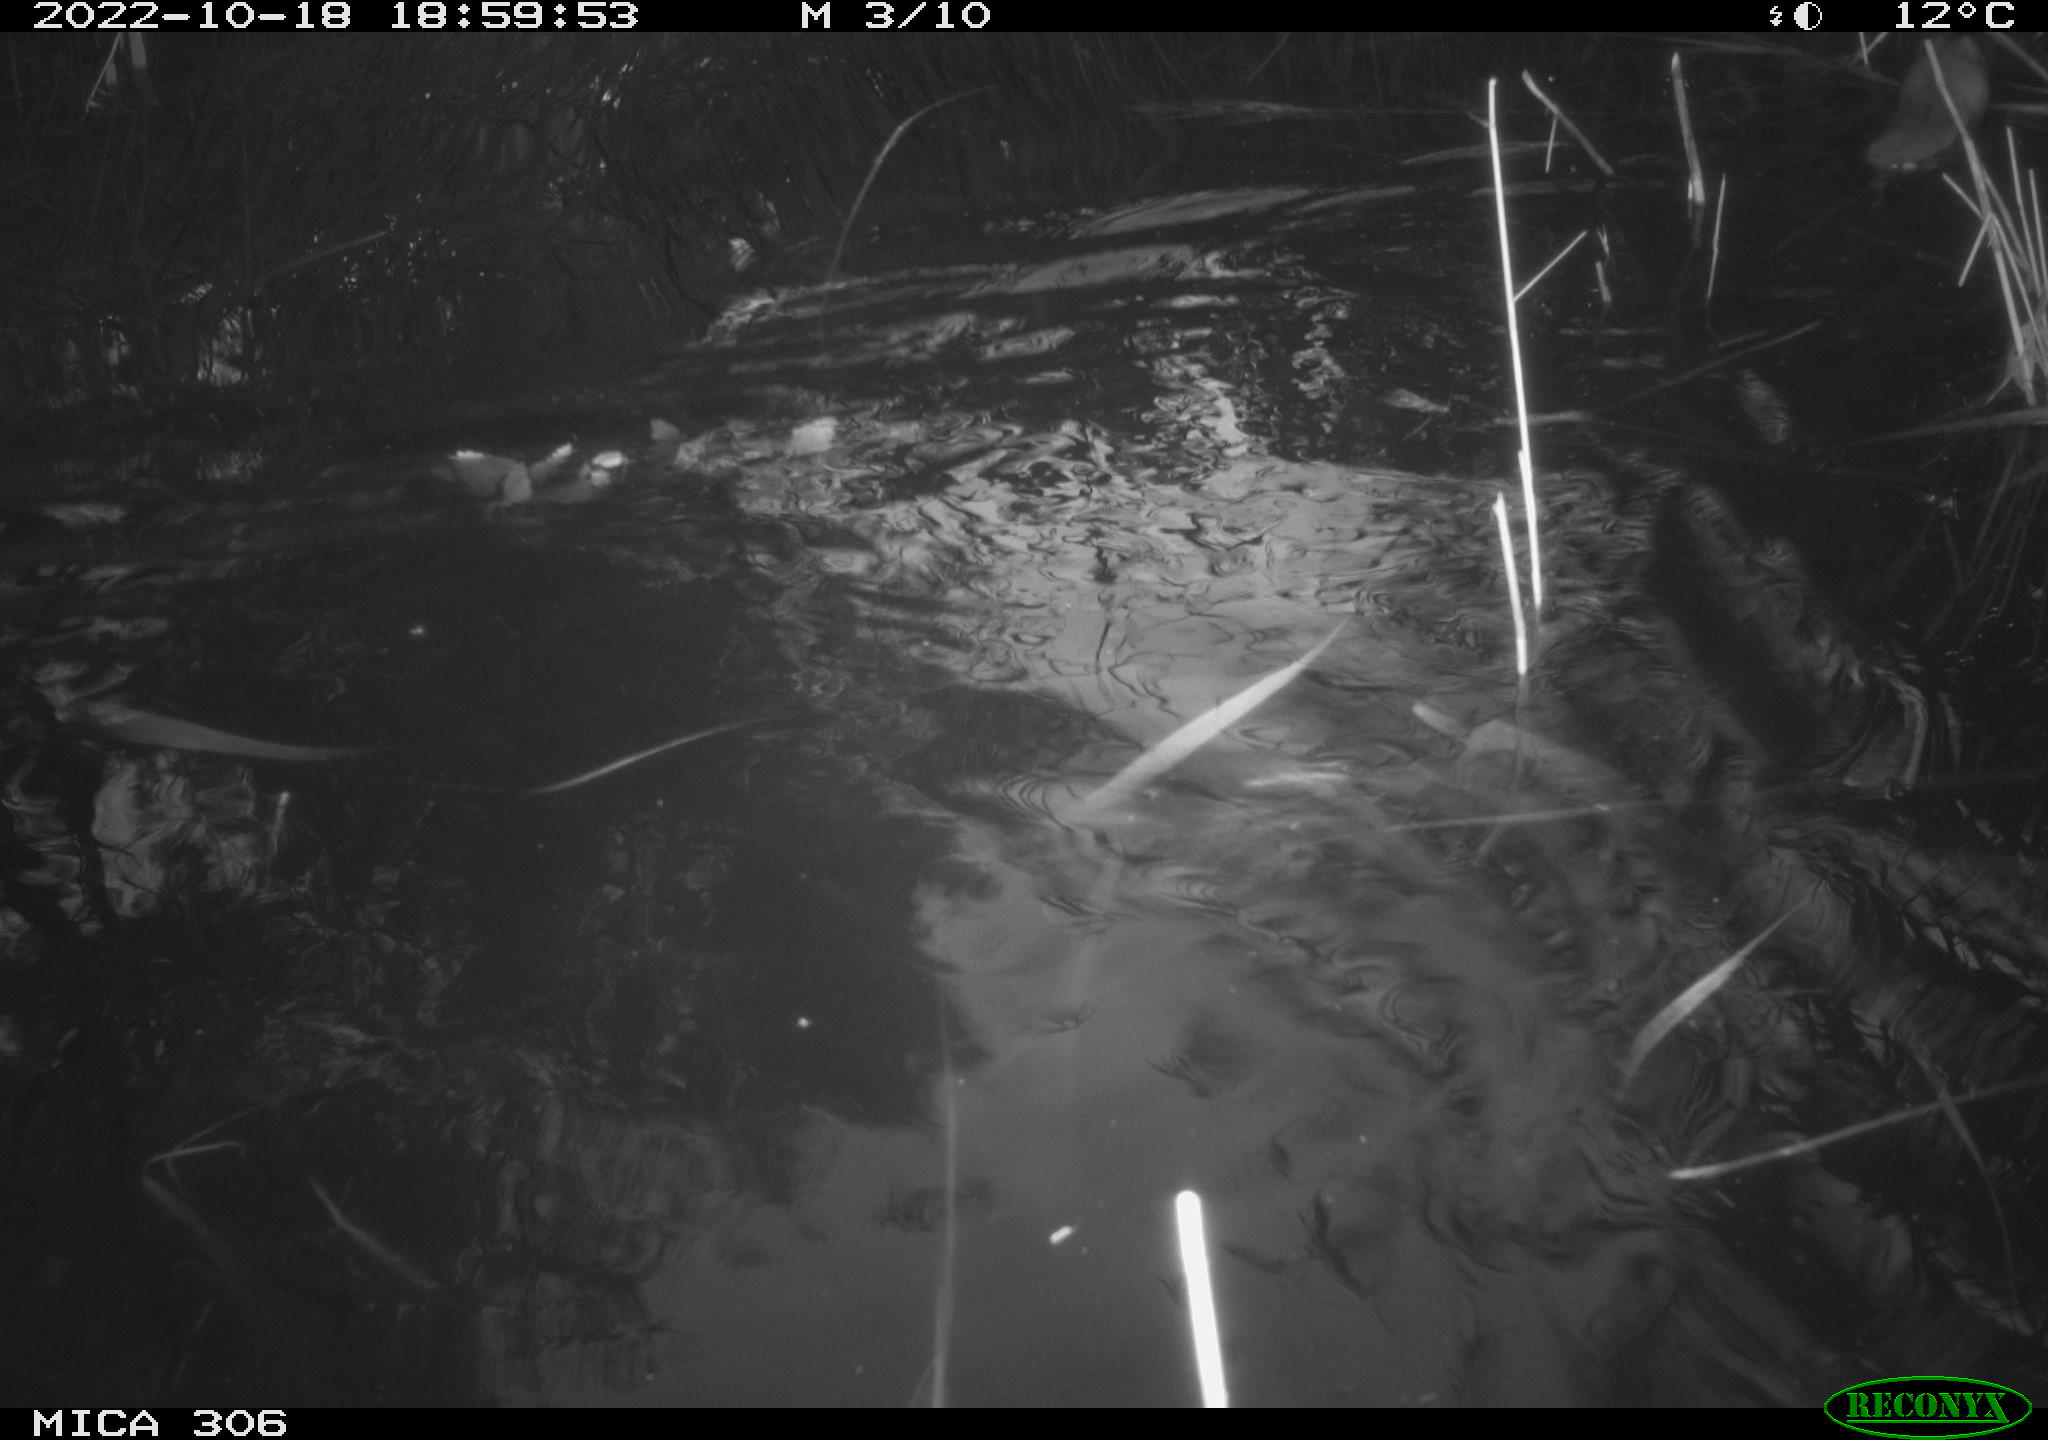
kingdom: Animalia
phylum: Chordata
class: Mammalia
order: Rodentia
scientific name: Rodentia
